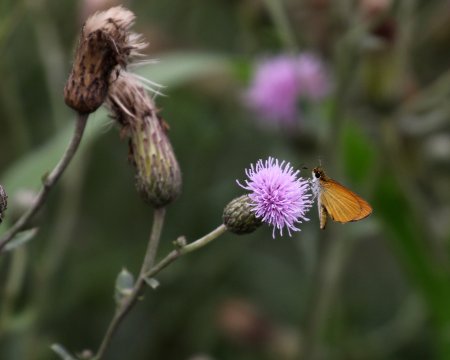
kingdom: Animalia
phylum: Arthropoda
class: Insecta
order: Lepidoptera
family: Hesperiidae
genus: Ancyloxypha
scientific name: Ancyloxypha numitor
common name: Least Skipper
